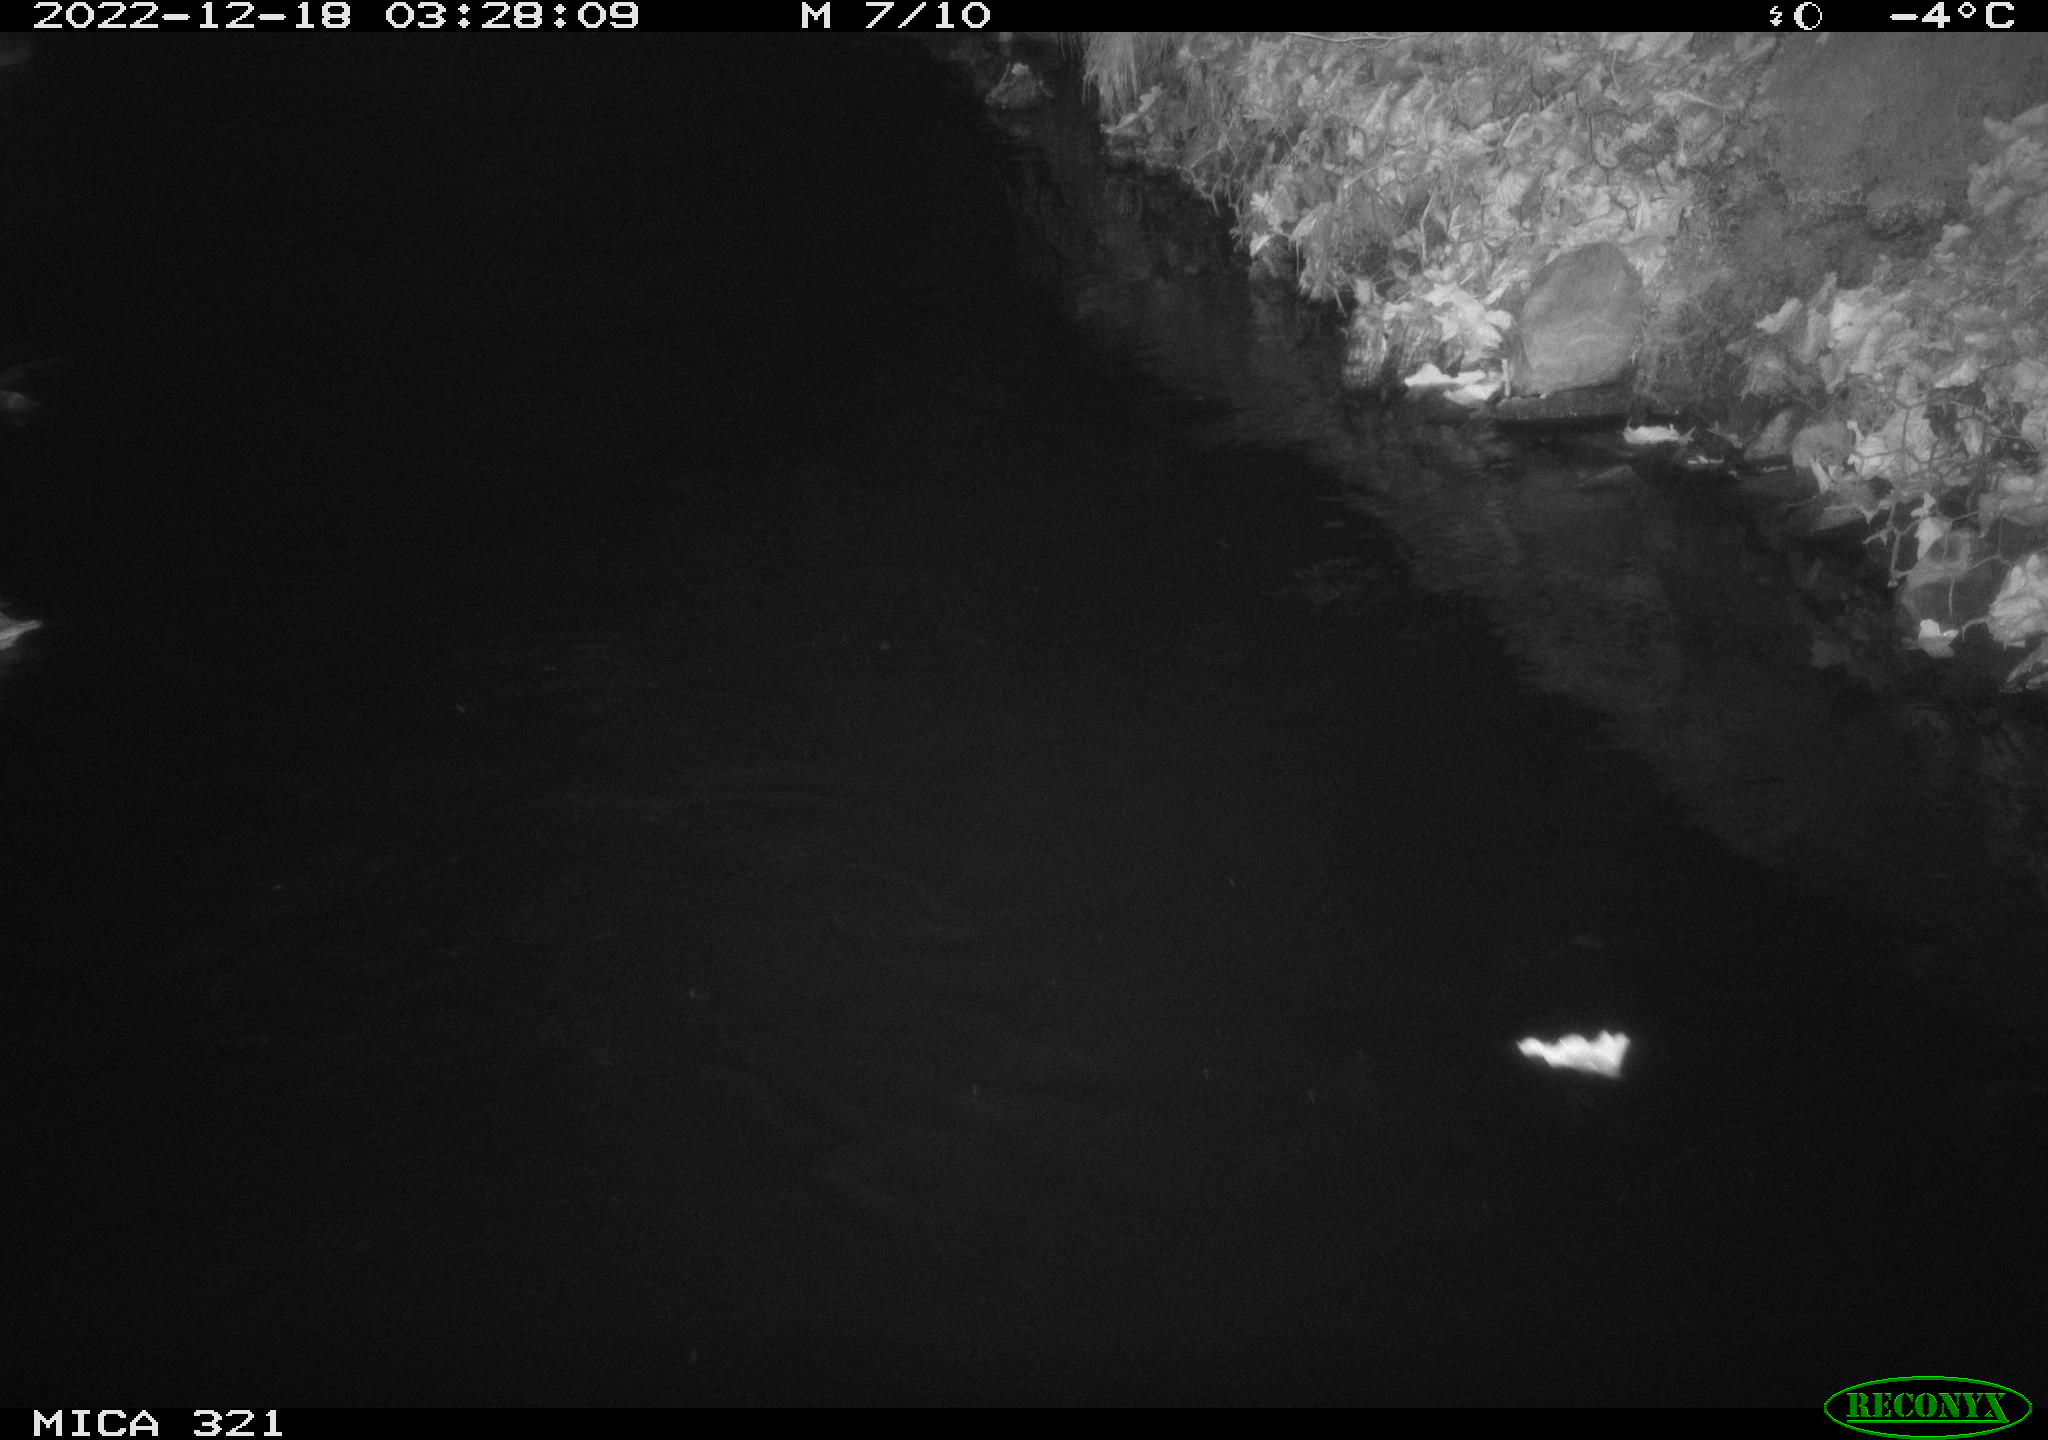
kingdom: Animalia
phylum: Chordata
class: Aves
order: Anseriformes
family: Anatidae
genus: Anas
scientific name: Anas
